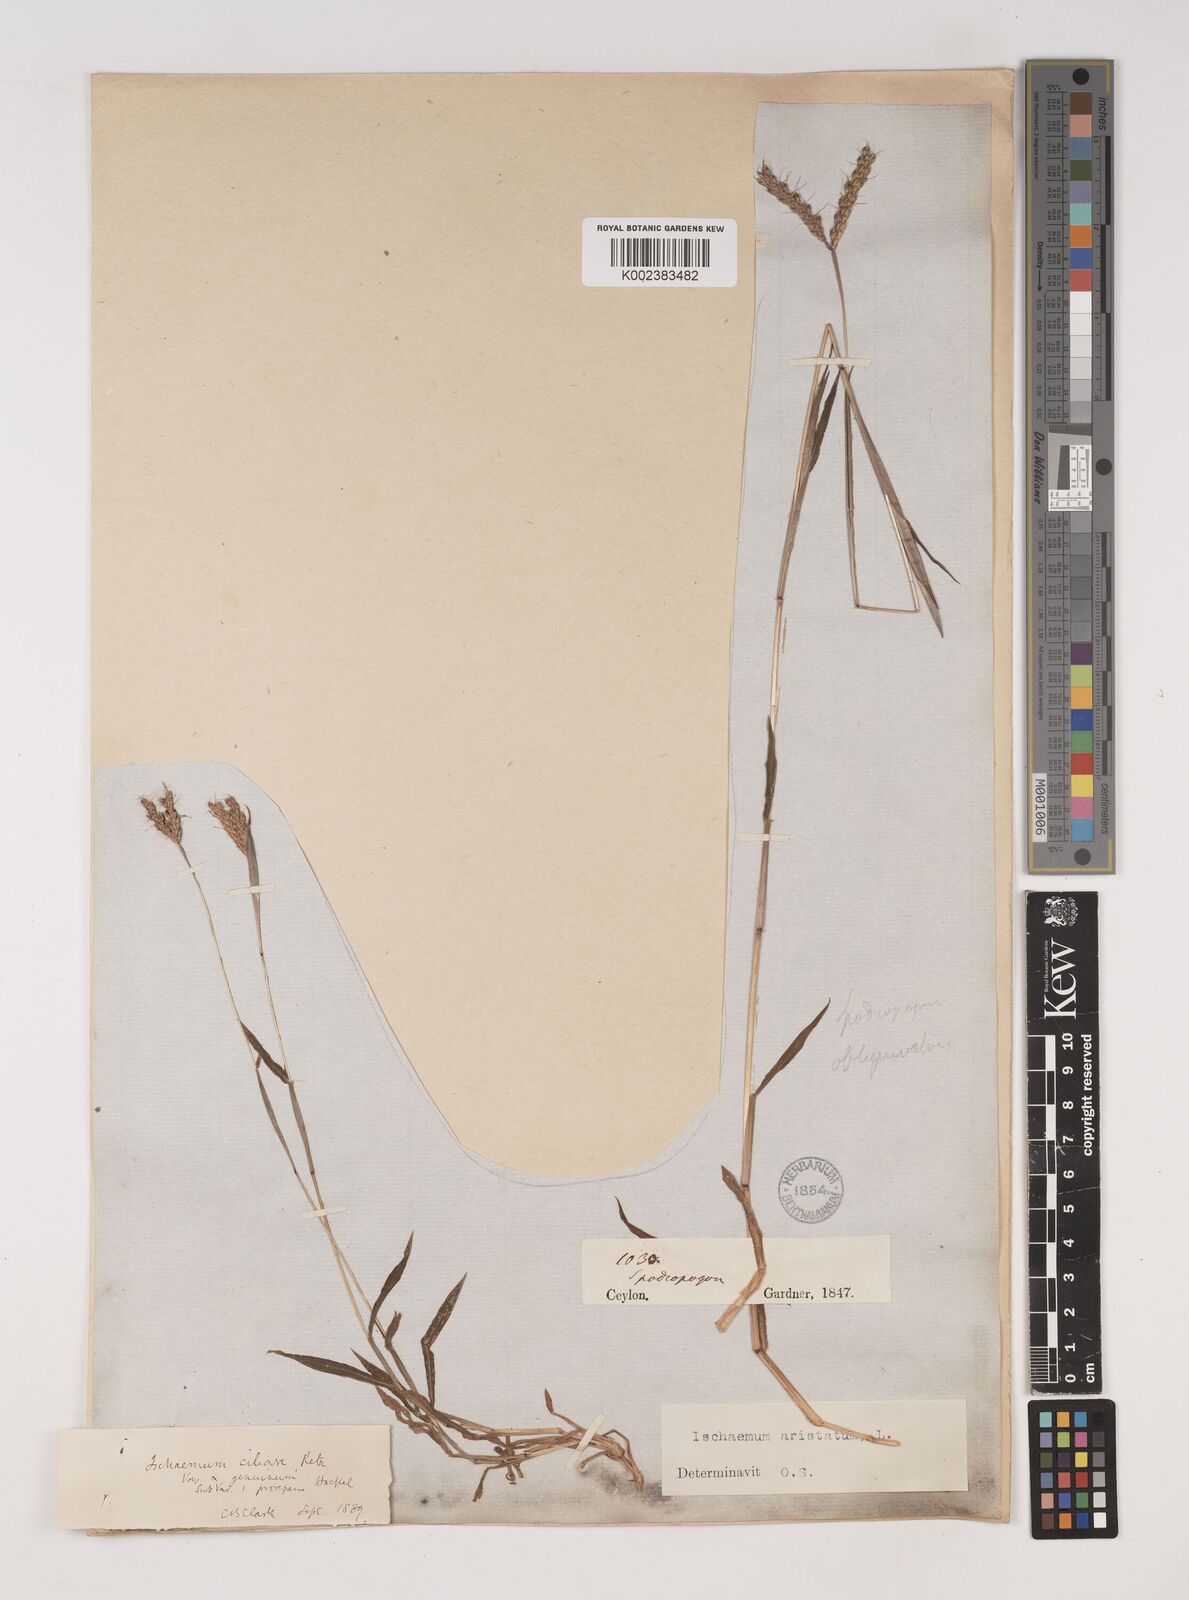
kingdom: Plantae
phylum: Tracheophyta
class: Liliopsida
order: Poales
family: Poaceae
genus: Polytrias
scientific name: Polytrias indica
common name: Indian murainagrass
